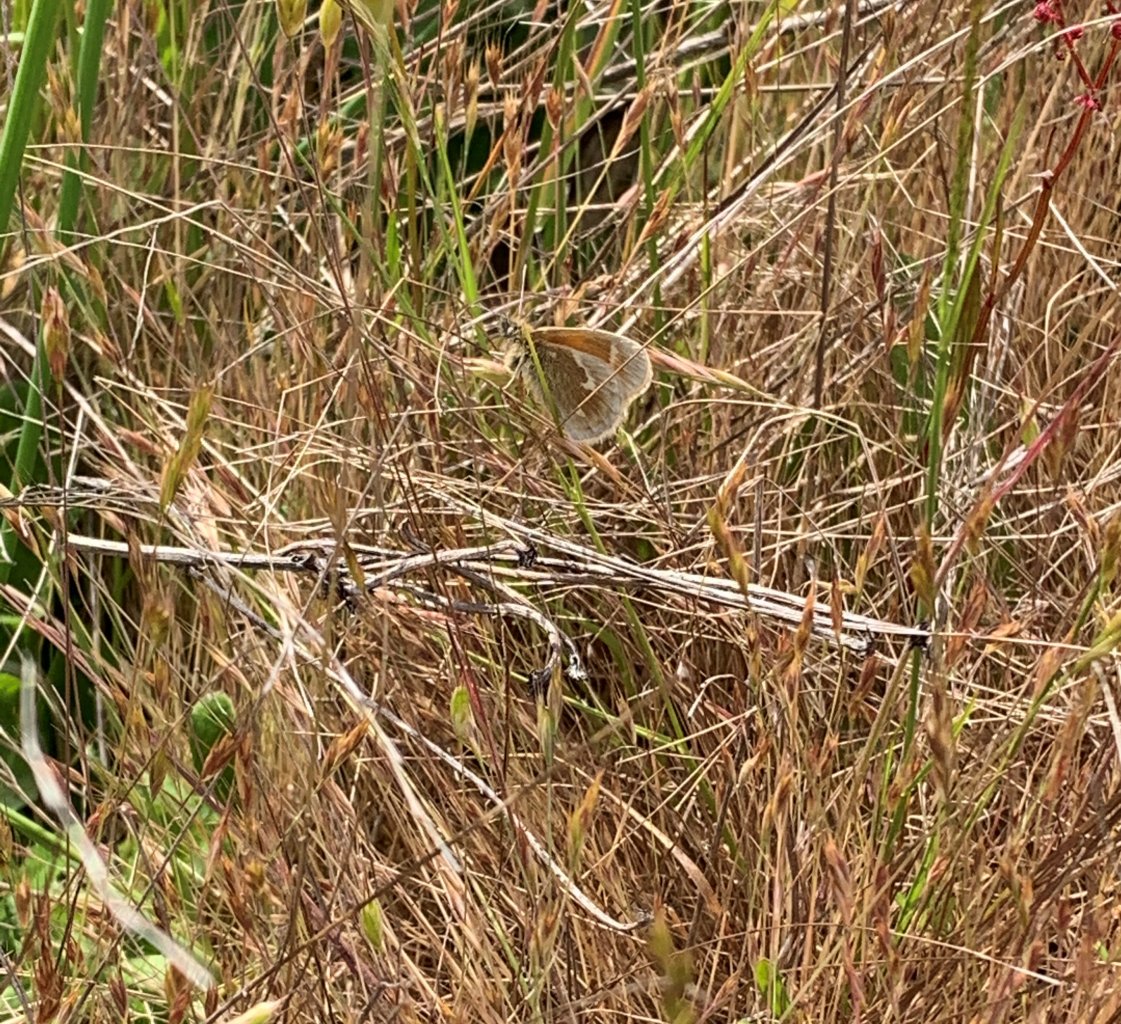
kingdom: Animalia
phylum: Arthropoda
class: Insecta
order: Lepidoptera
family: Nymphalidae
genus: Coenonympha
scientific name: Coenonympha tullia
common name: Large Heath
